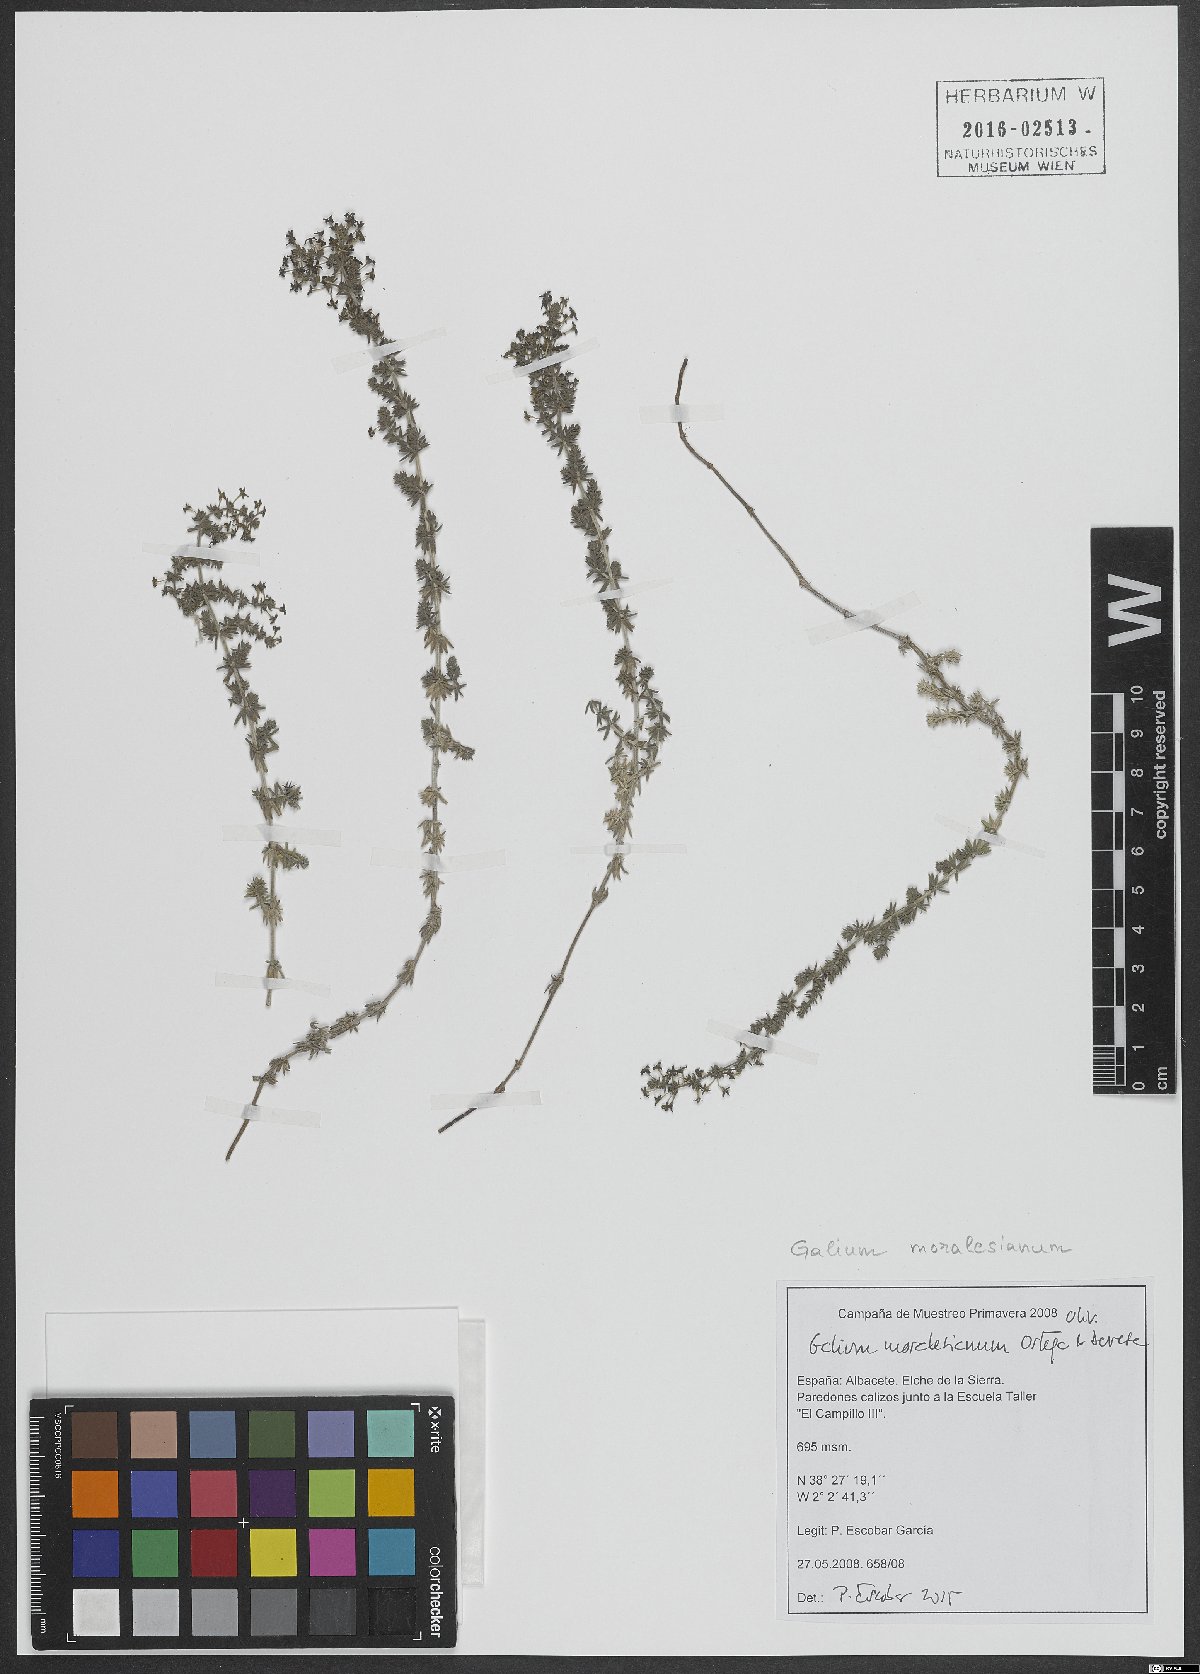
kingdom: Plantae
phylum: Tracheophyta
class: Magnoliopsida
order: Gentianales
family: Rubiaceae
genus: Galium
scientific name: Galium moralesianum
